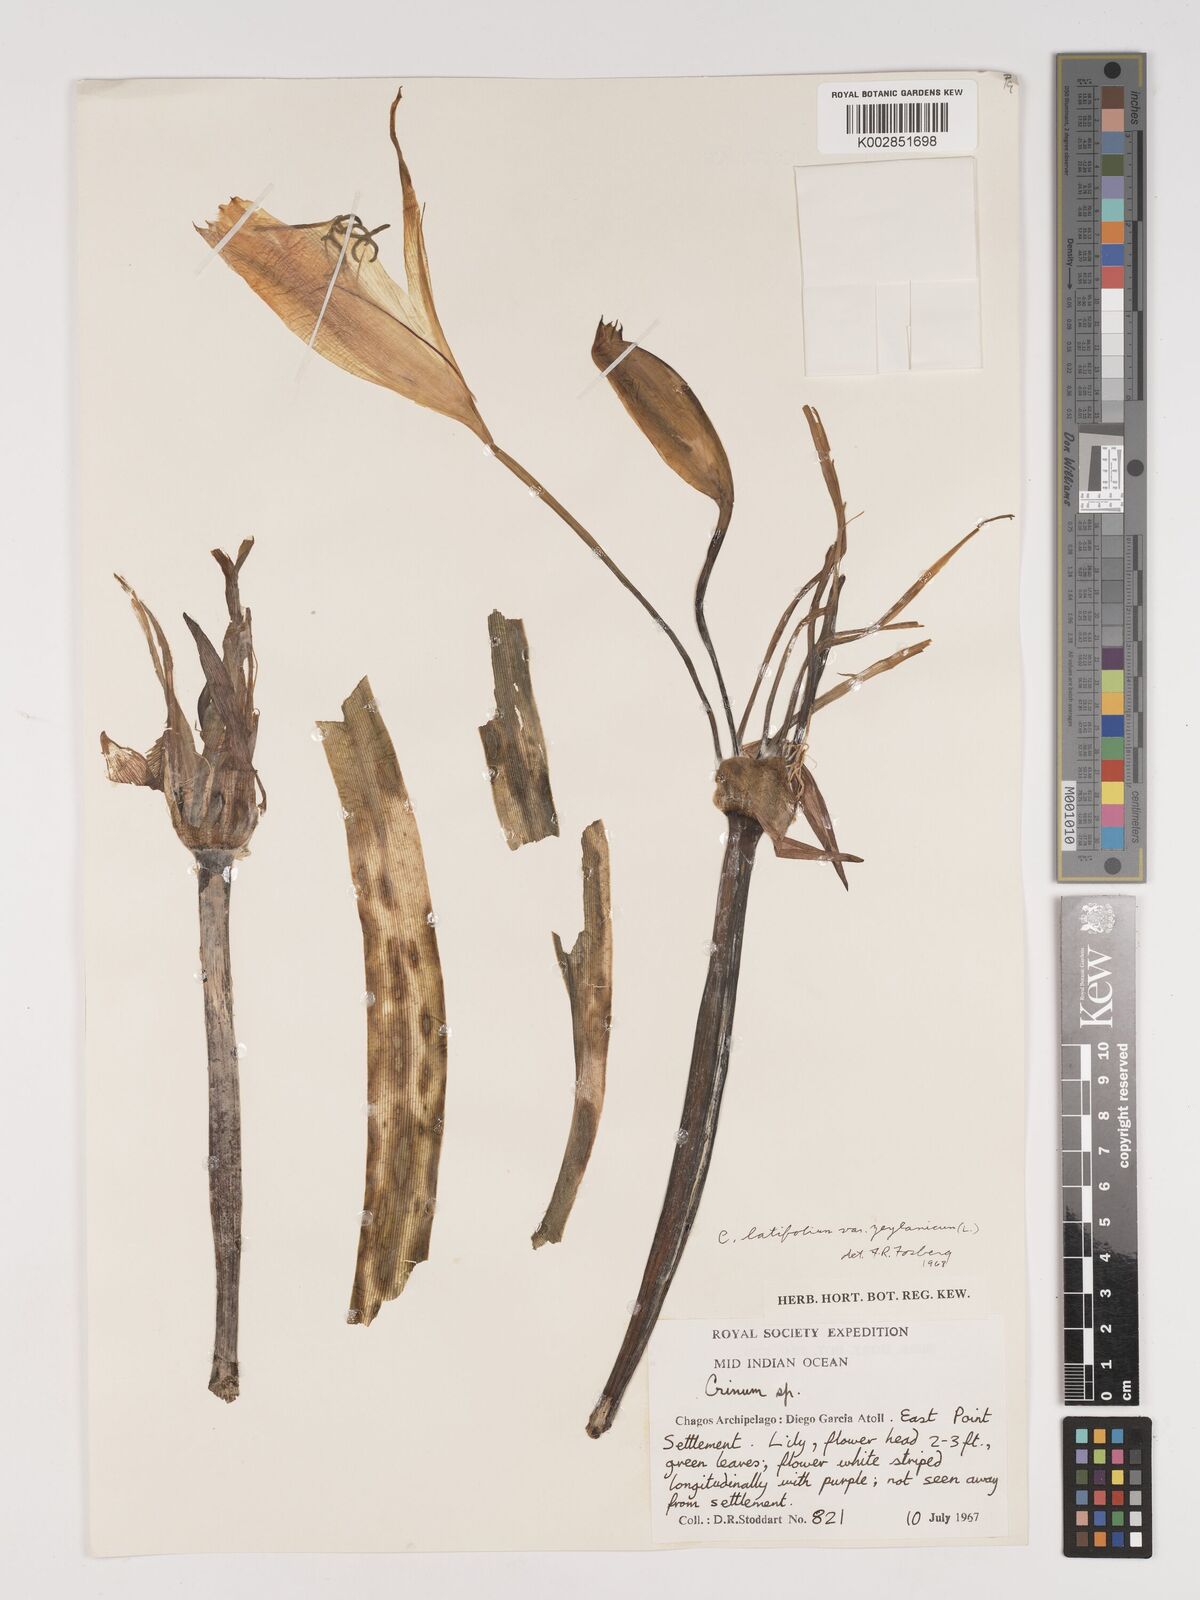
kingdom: Plantae
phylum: Tracheophyta
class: Liliopsida
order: Asparagales
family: Amaryllidaceae
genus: Crinum
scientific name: Crinum latifolium
